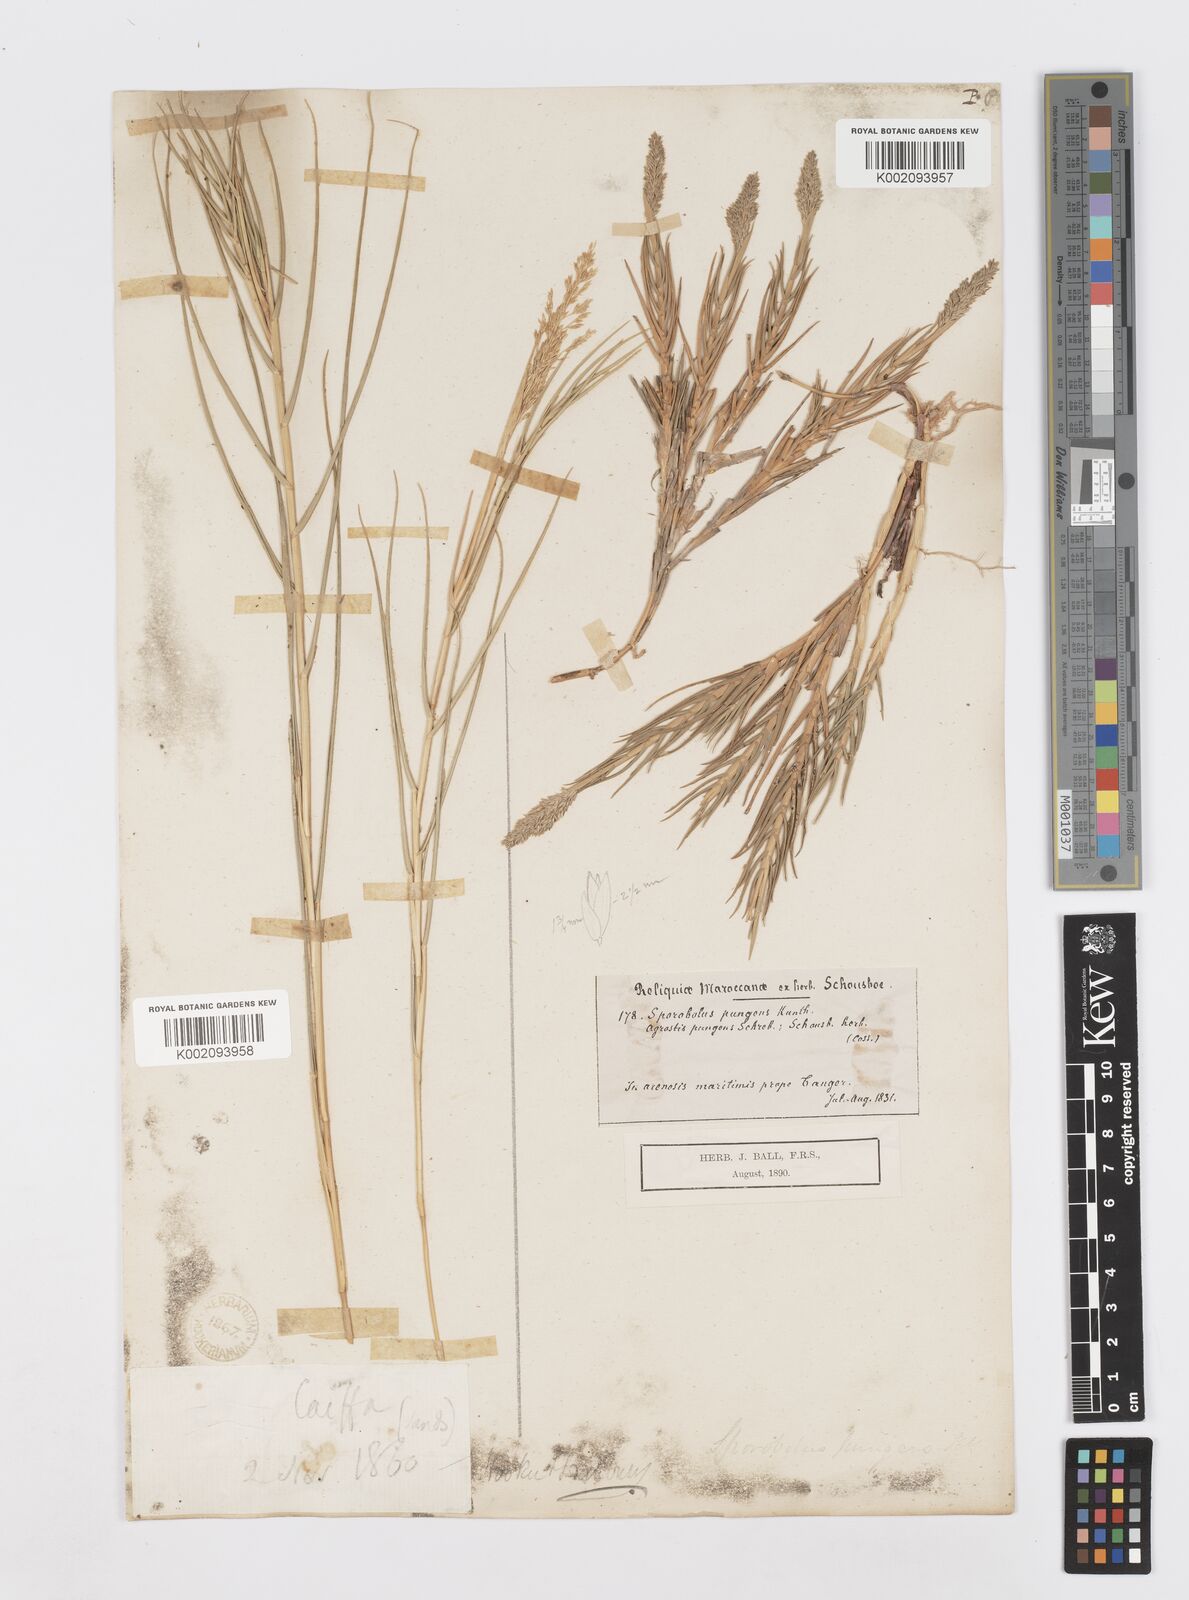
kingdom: Plantae
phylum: Tracheophyta
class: Liliopsida
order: Poales
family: Poaceae
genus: Sporobolus
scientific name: Sporobolus pungens
